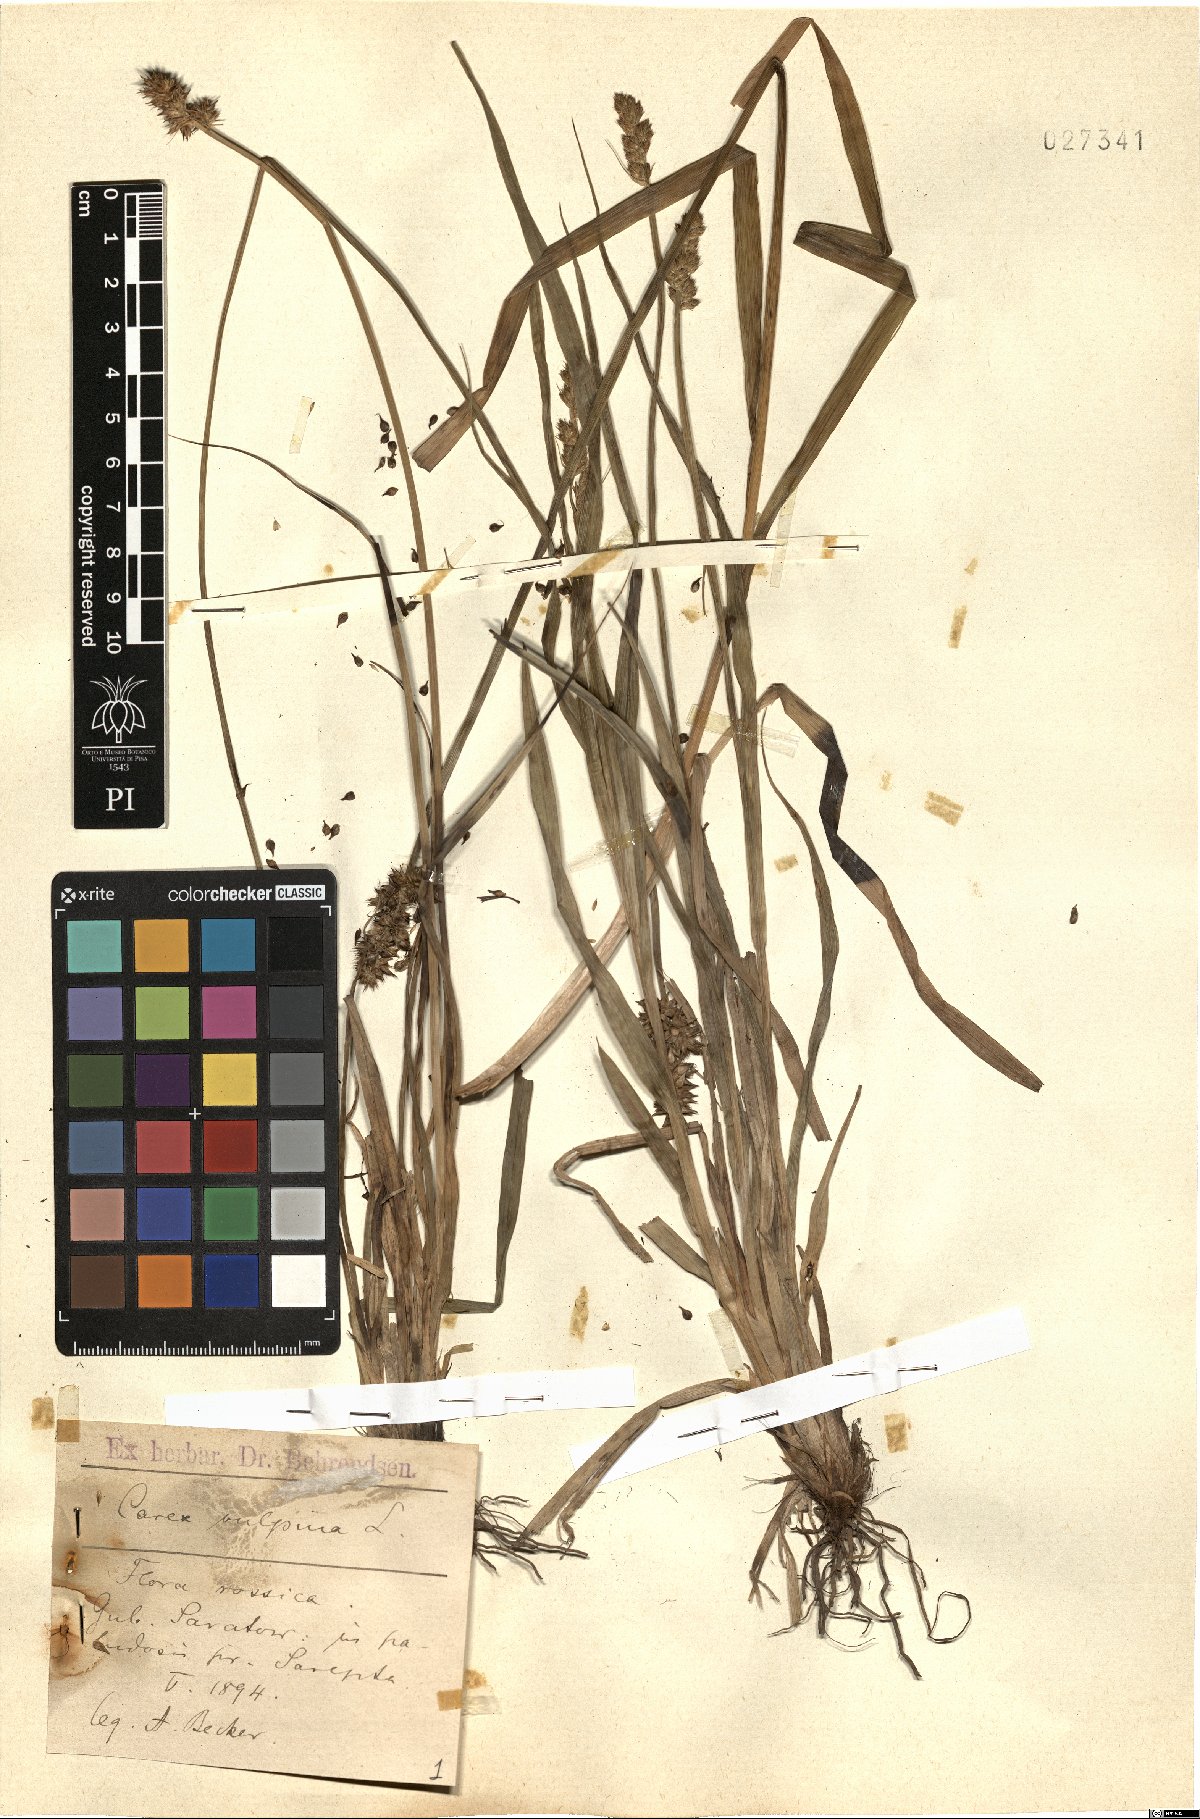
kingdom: Plantae
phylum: Tracheophyta
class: Liliopsida
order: Poales
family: Cyperaceae
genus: Carex
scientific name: Carex vulpina
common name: True fox-sedge
